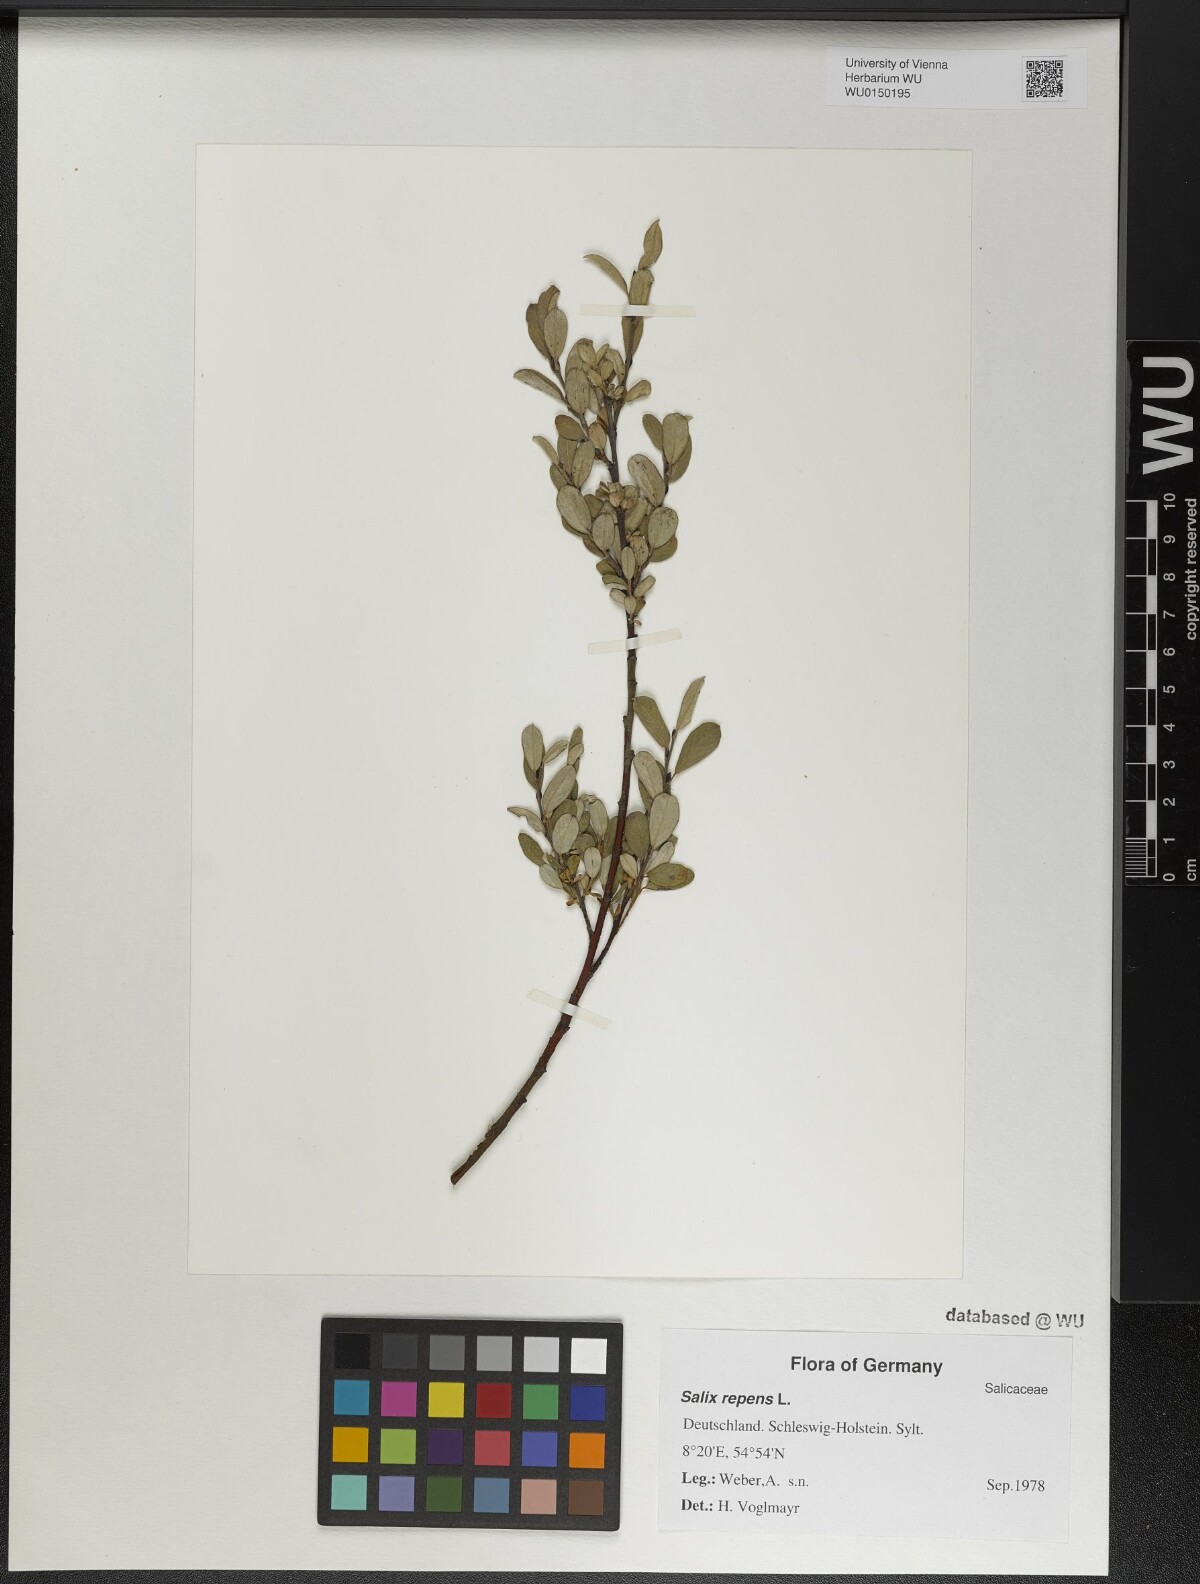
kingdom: Plantae
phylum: Tracheophyta
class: Magnoliopsida
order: Malpighiales
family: Salicaceae
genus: Salix
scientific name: Salix repens
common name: Creeping willow
